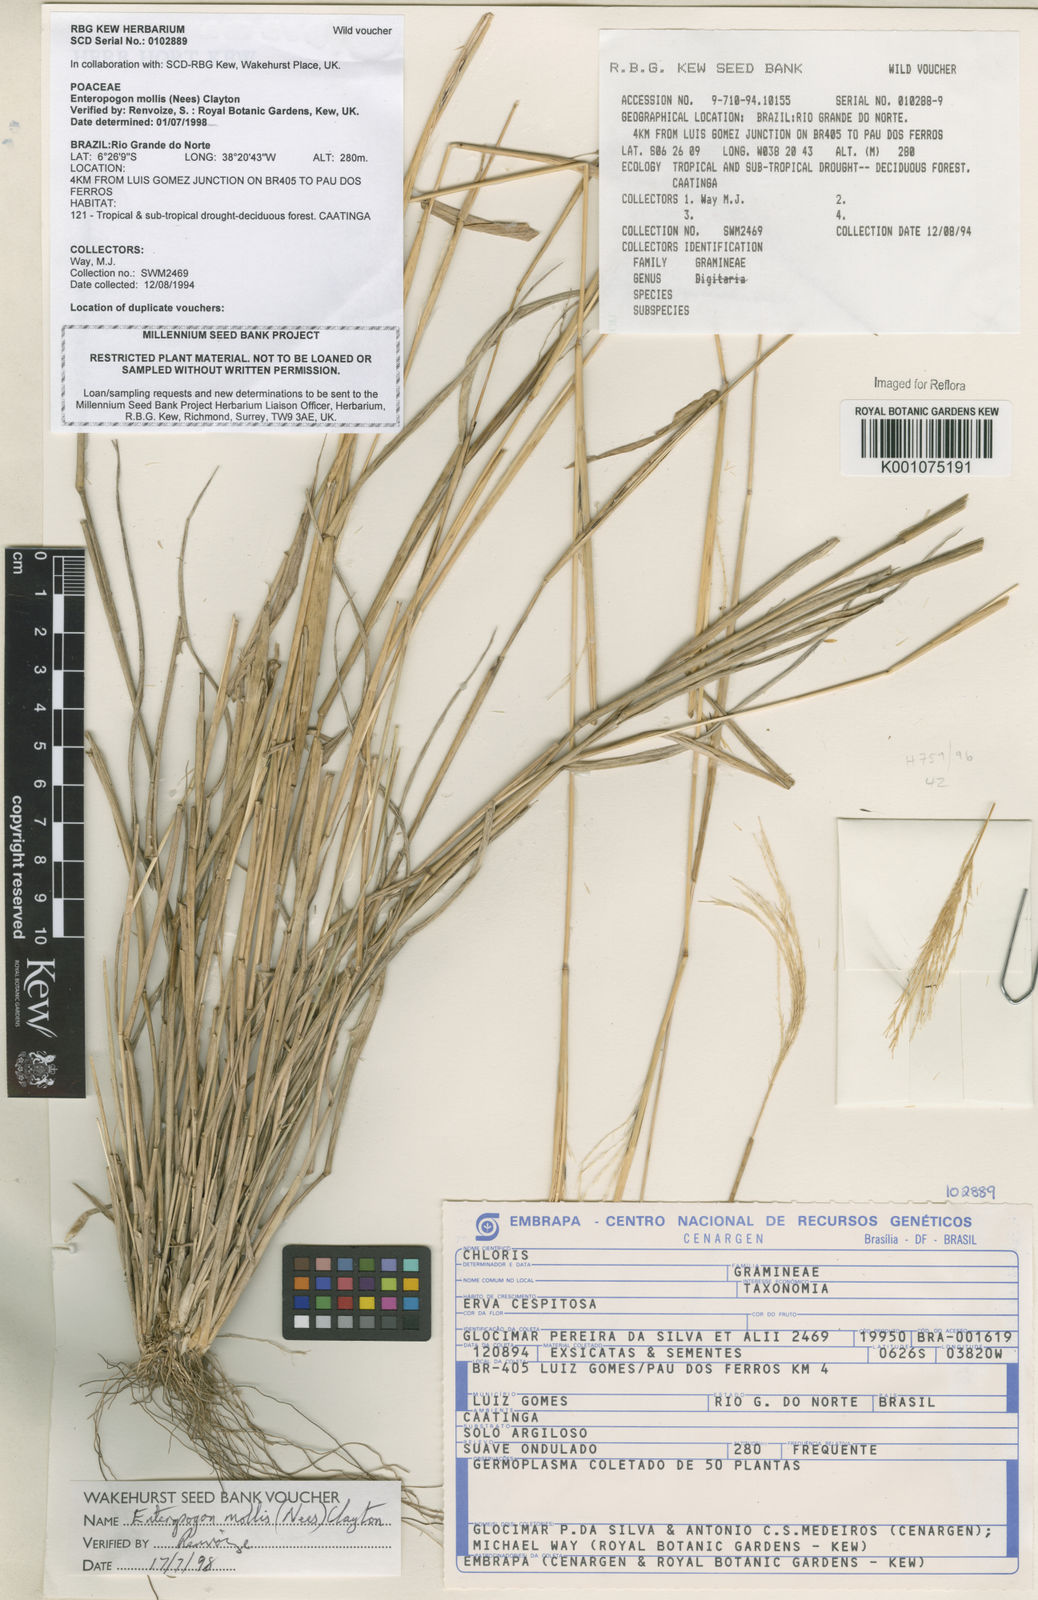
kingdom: Plantae
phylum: Tracheophyta
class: Liliopsida
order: Poales
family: Poaceae
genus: Leptochloa
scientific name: Leptochloa anisopoda
